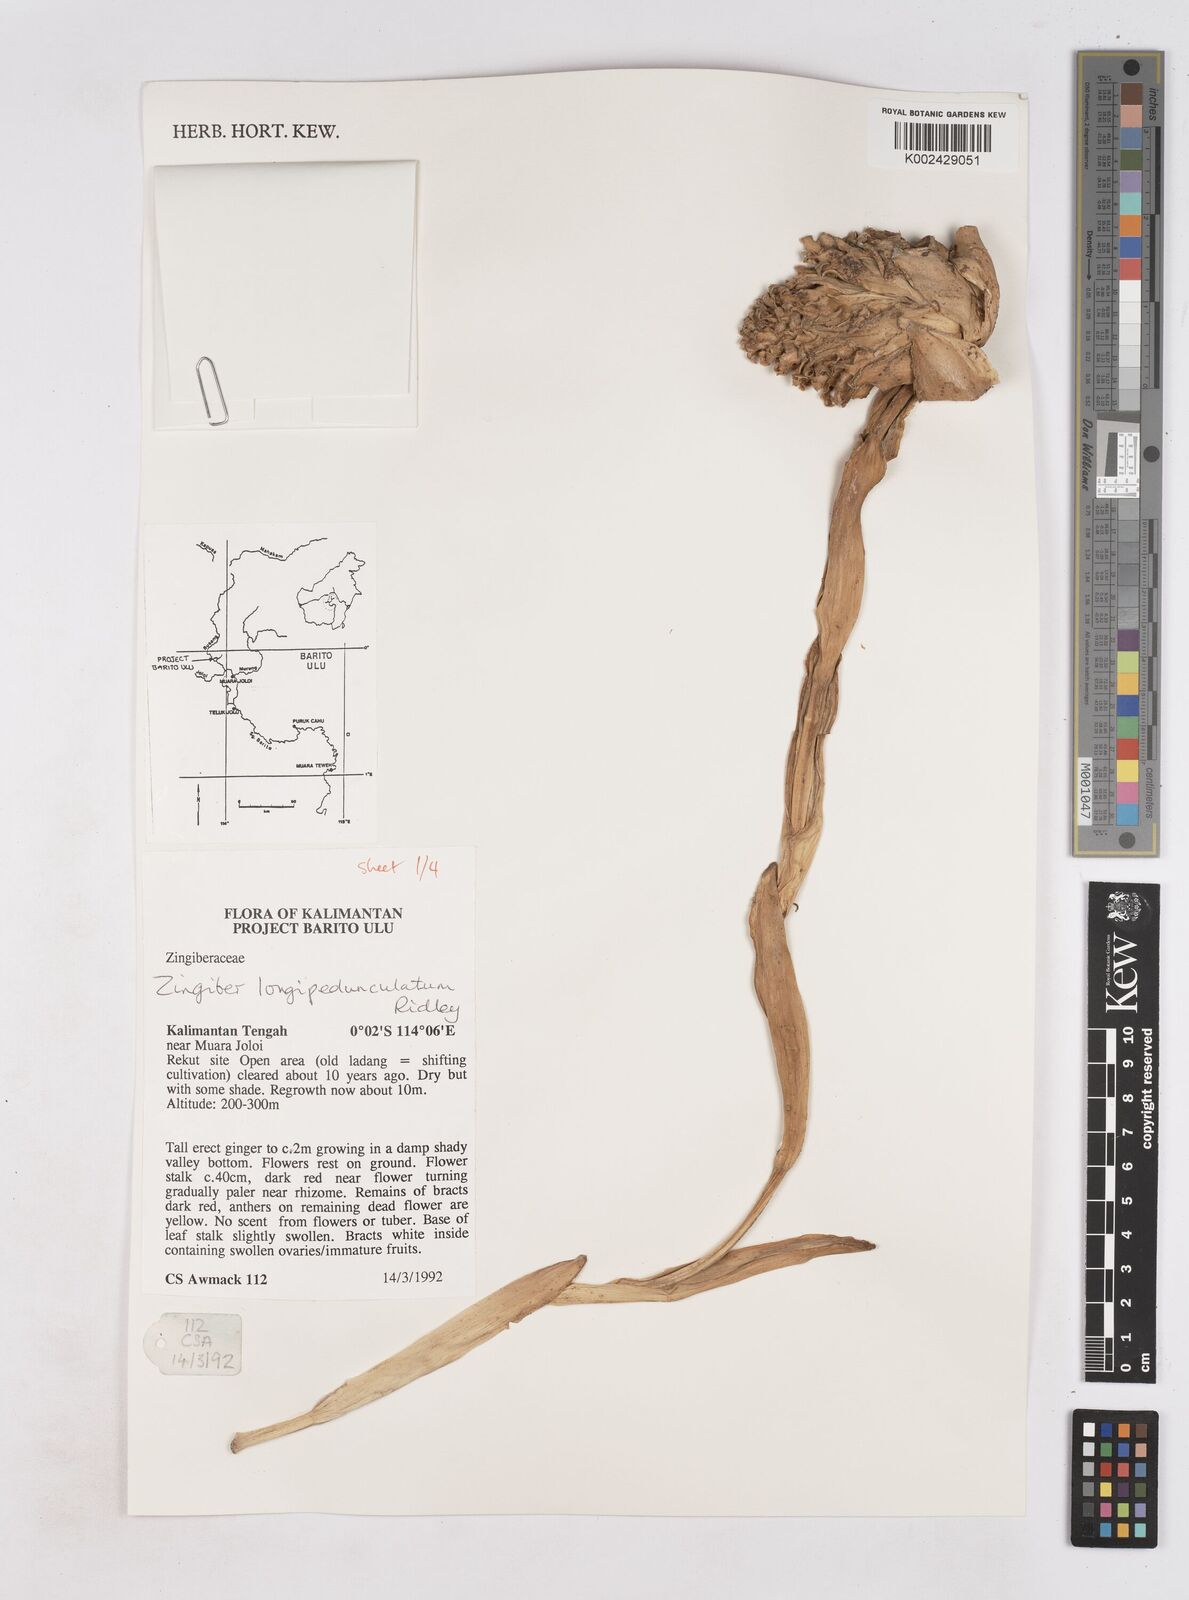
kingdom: Plantae
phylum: Tracheophyta
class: Liliopsida
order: Zingiberales
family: Zingiberaceae
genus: Zingiber
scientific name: Zingiber longipedunculatum
